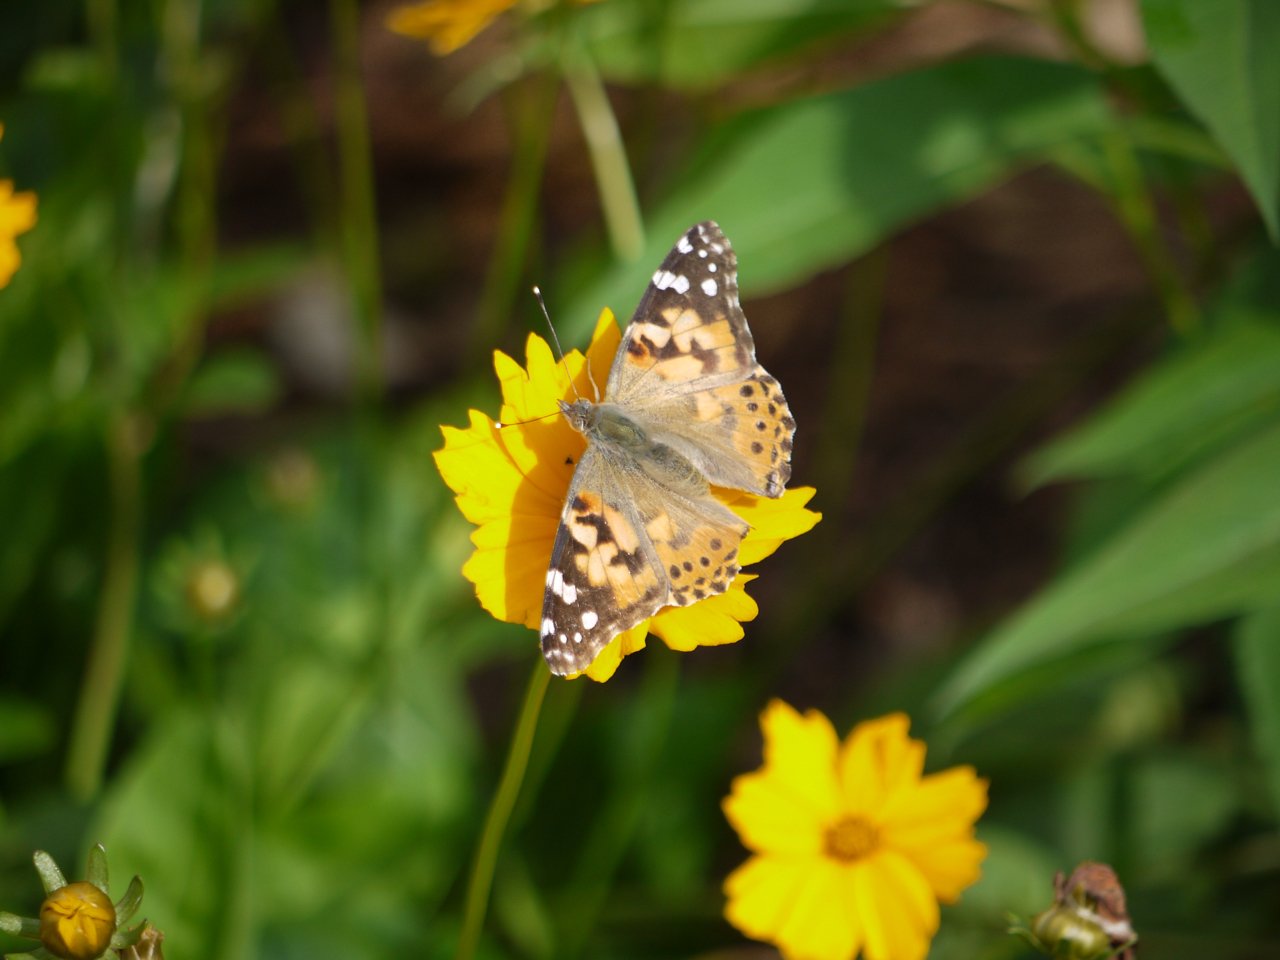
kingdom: Animalia
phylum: Arthropoda
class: Insecta
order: Lepidoptera
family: Nymphalidae
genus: Vanessa
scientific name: Vanessa cardui
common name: Painted Lady
